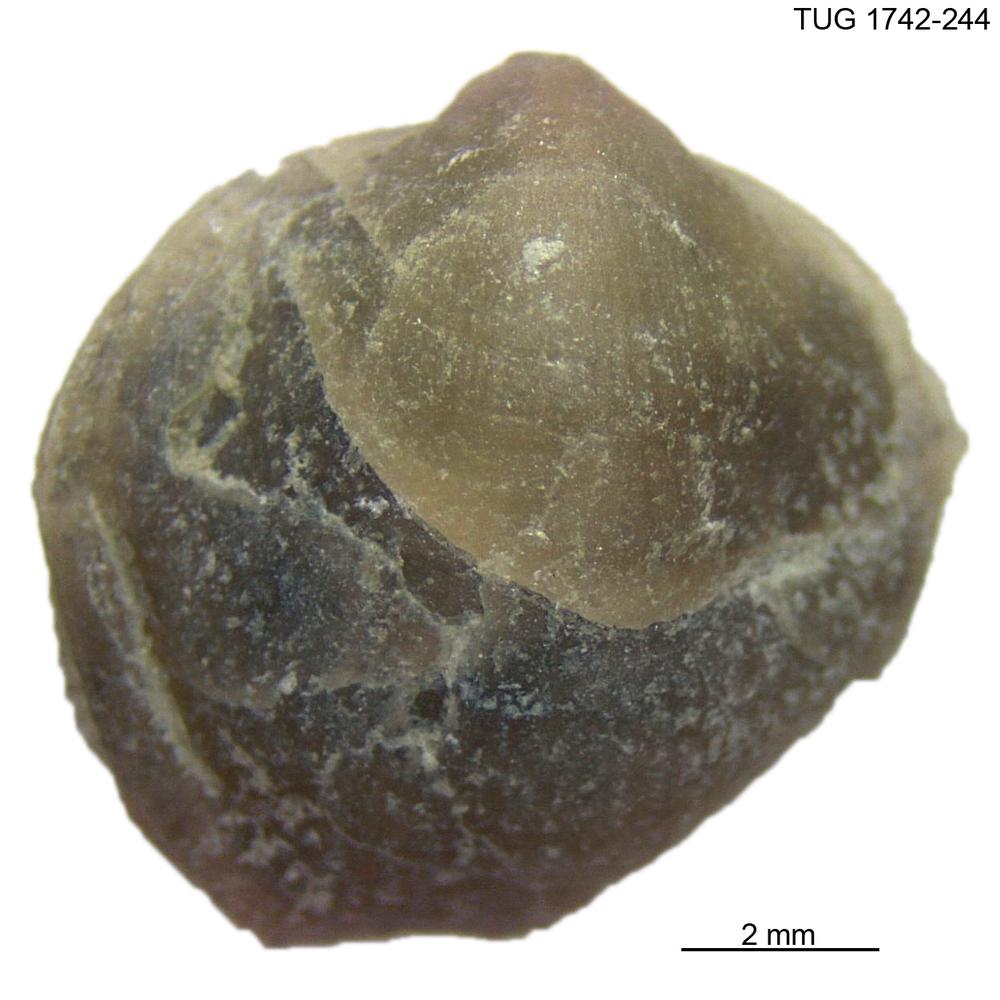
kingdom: Animalia
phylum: Brachiopoda
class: Rhynchonellata
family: Anazygidae
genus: Pentlandella
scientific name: Pentlandella
